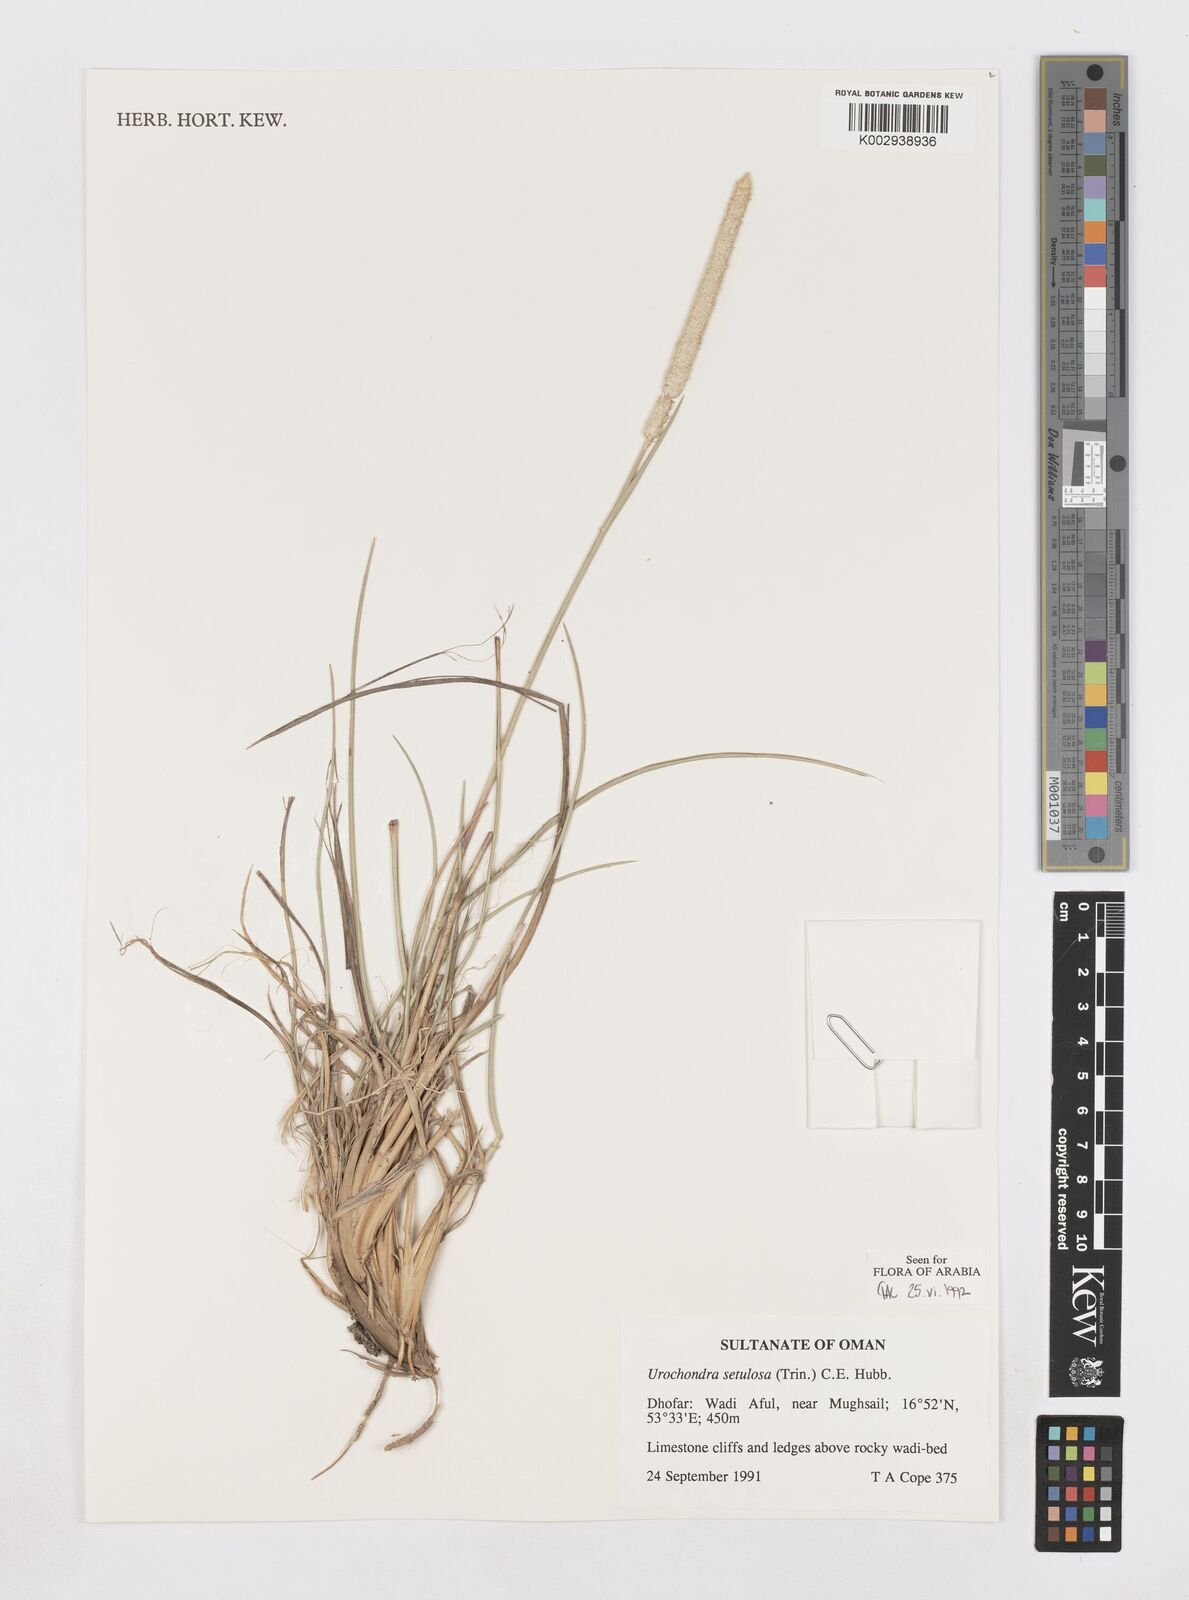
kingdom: Plantae
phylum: Tracheophyta
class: Liliopsida
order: Poales
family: Poaceae
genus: Urochondra
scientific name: Urochondra setulosa
